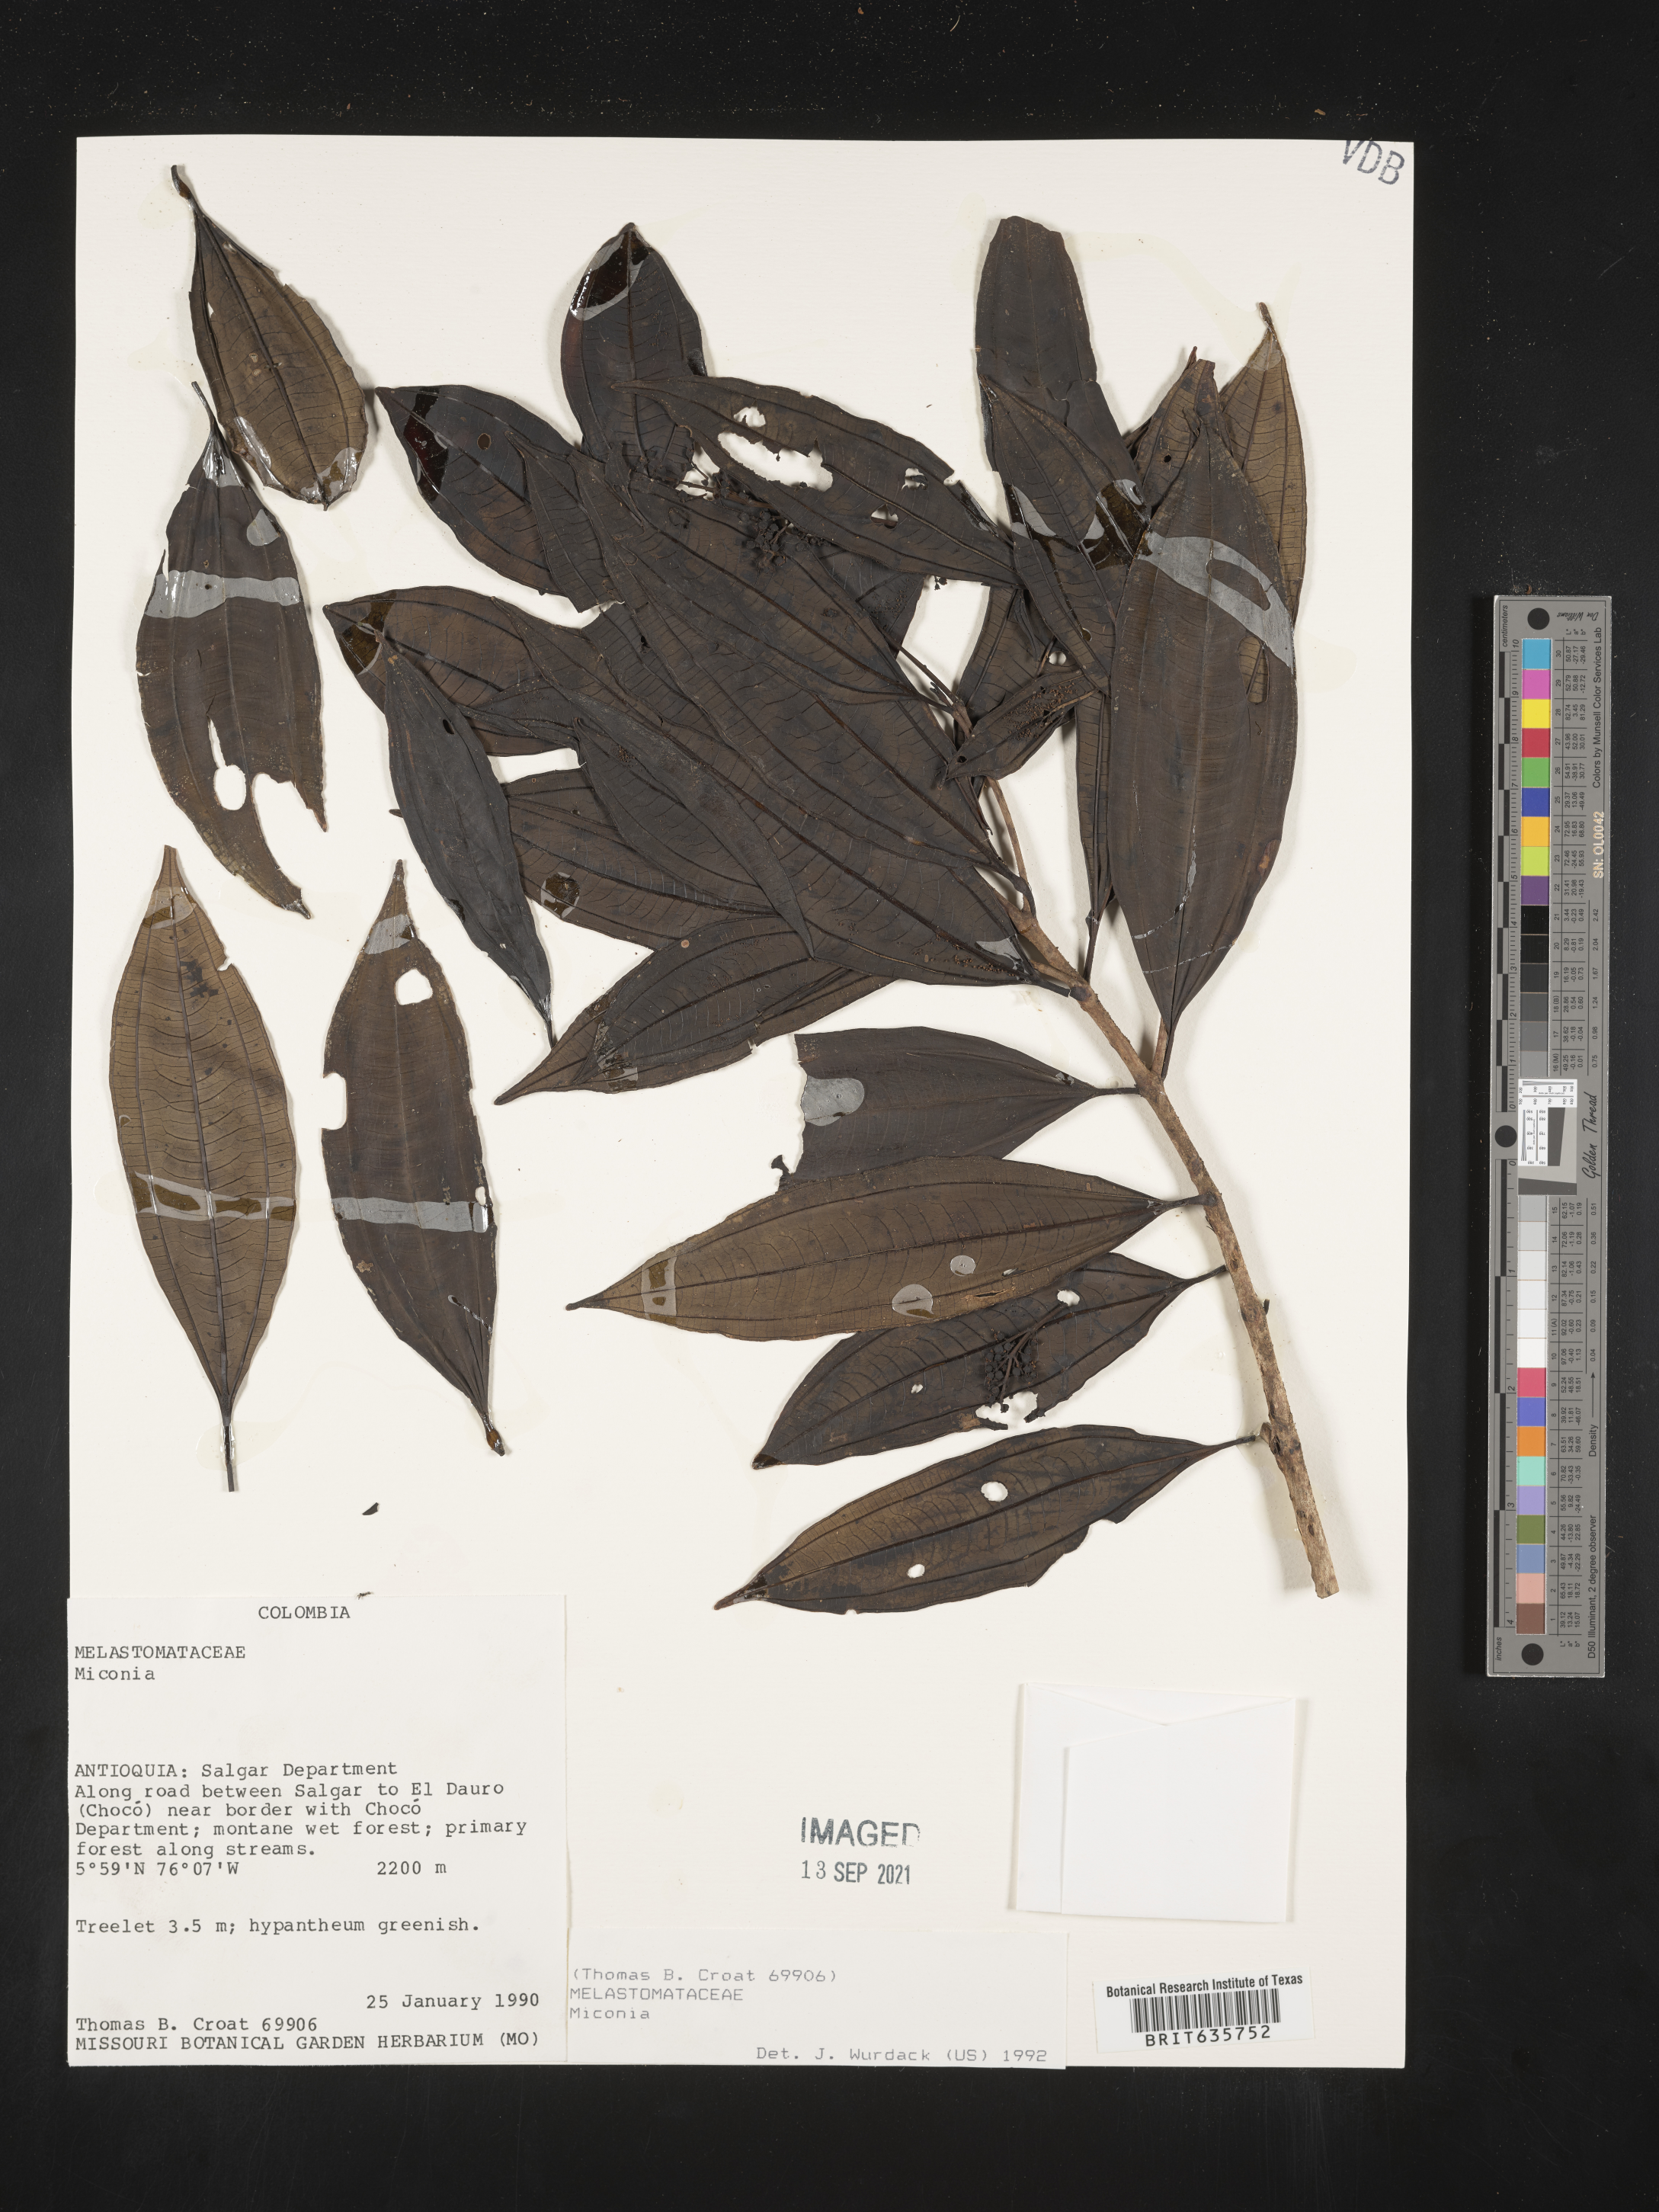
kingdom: Plantae
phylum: Tracheophyta
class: Magnoliopsida
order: Myrtales
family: Melastomataceae
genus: Miconia
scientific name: Miconia
